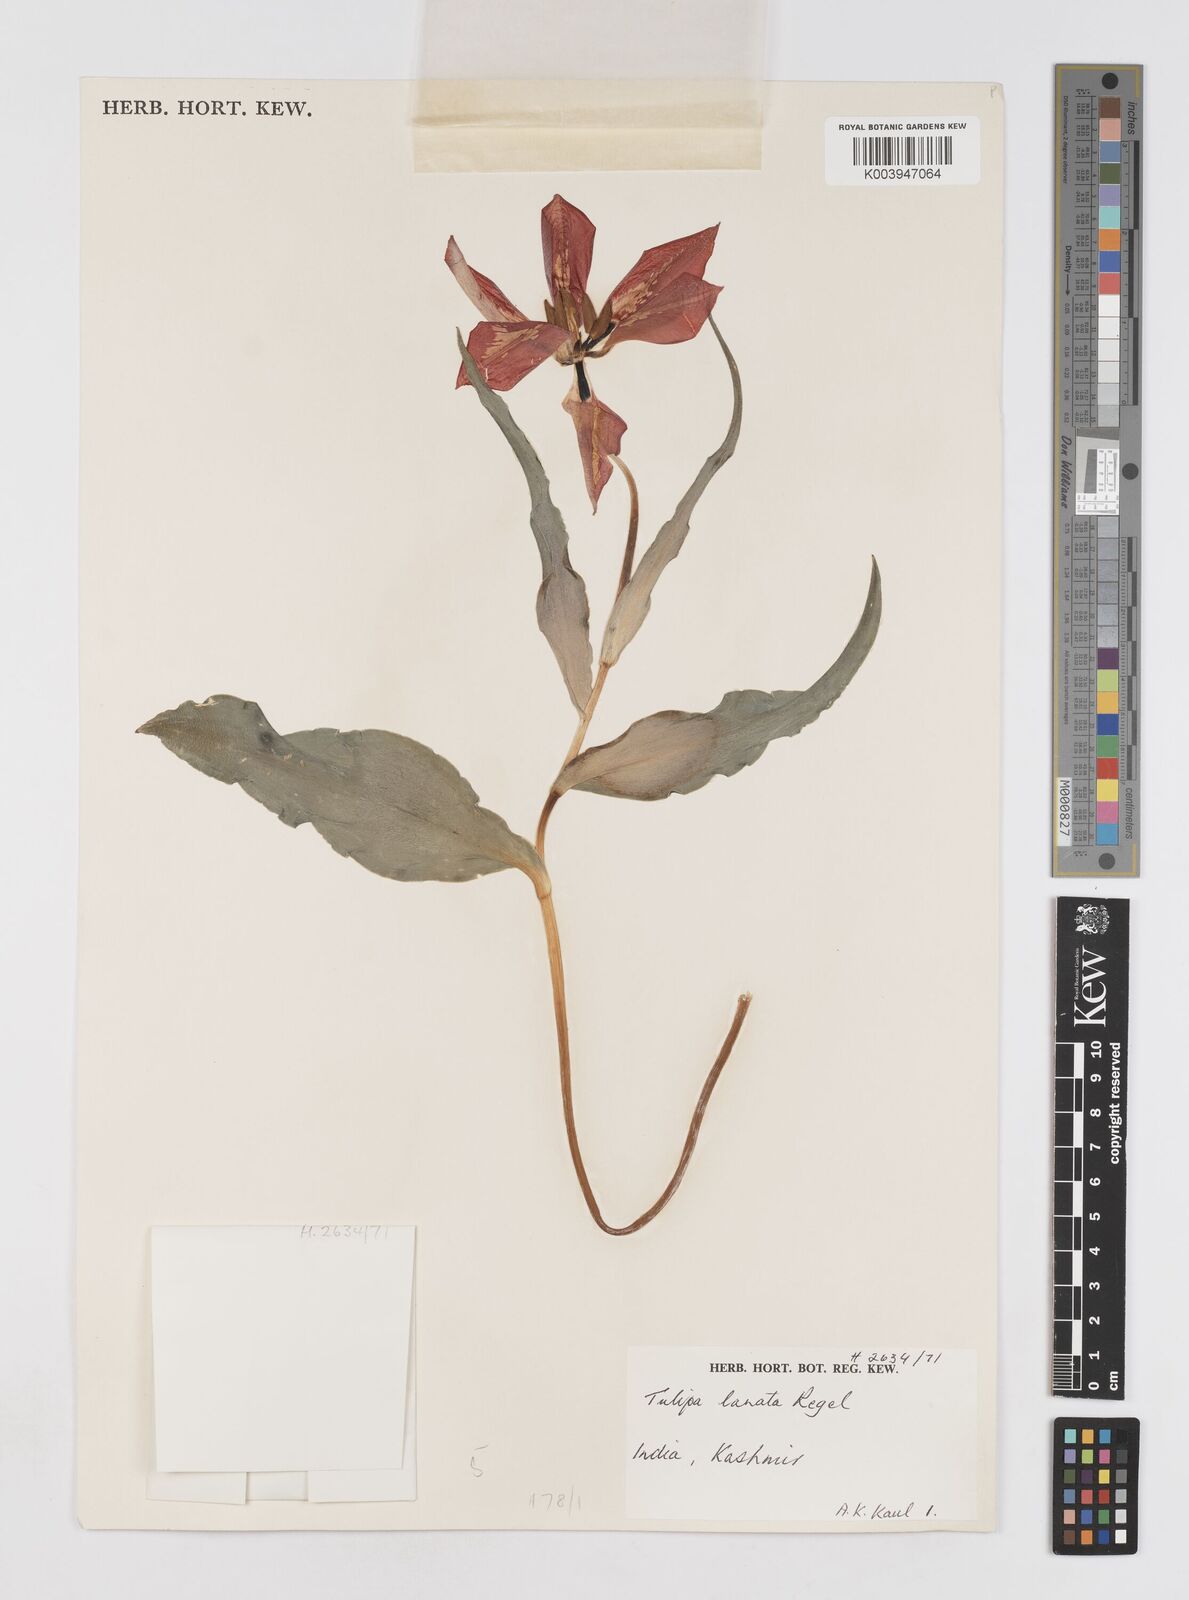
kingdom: Plantae
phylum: Tracheophyta
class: Liliopsida
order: Liliales
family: Liliaceae
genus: Tulipa
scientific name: Tulipa lanata
